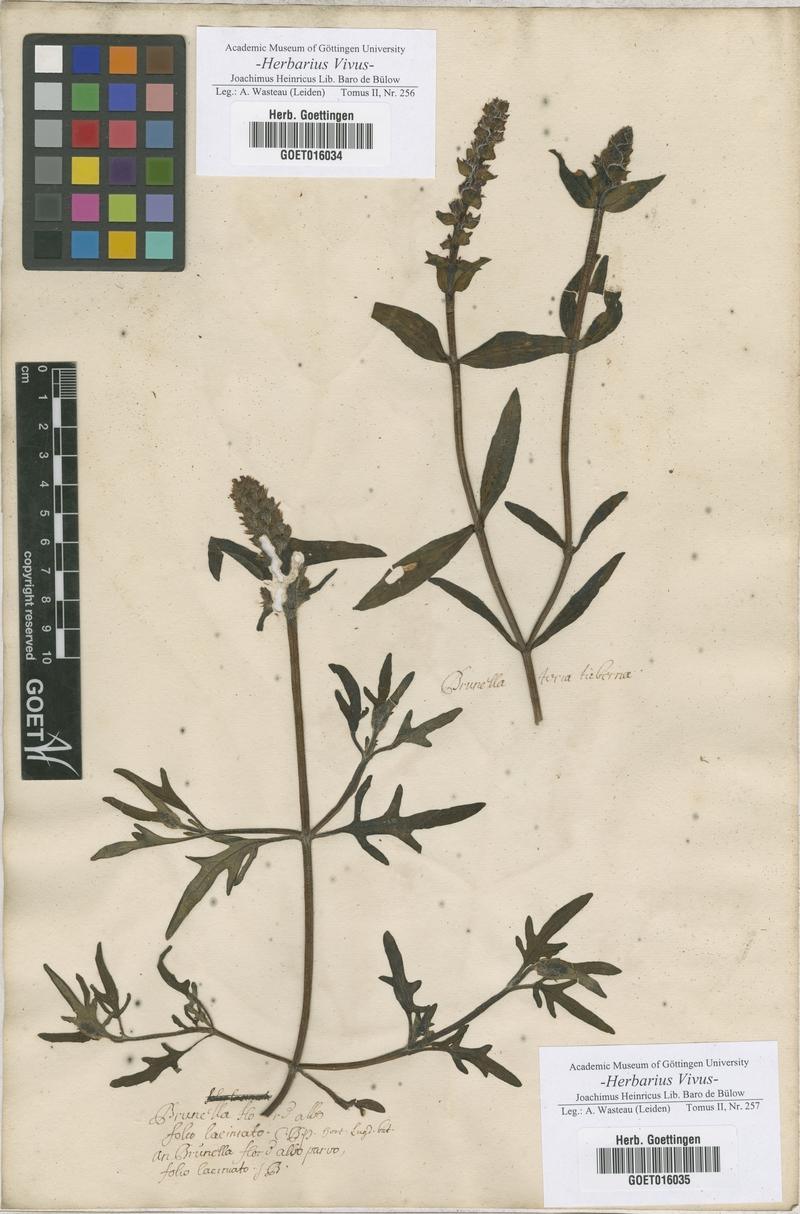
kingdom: Plantae
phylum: Tracheophyta
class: Magnoliopsida
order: Lamiales
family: Lamiaceae
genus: Prunella
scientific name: Prunella
